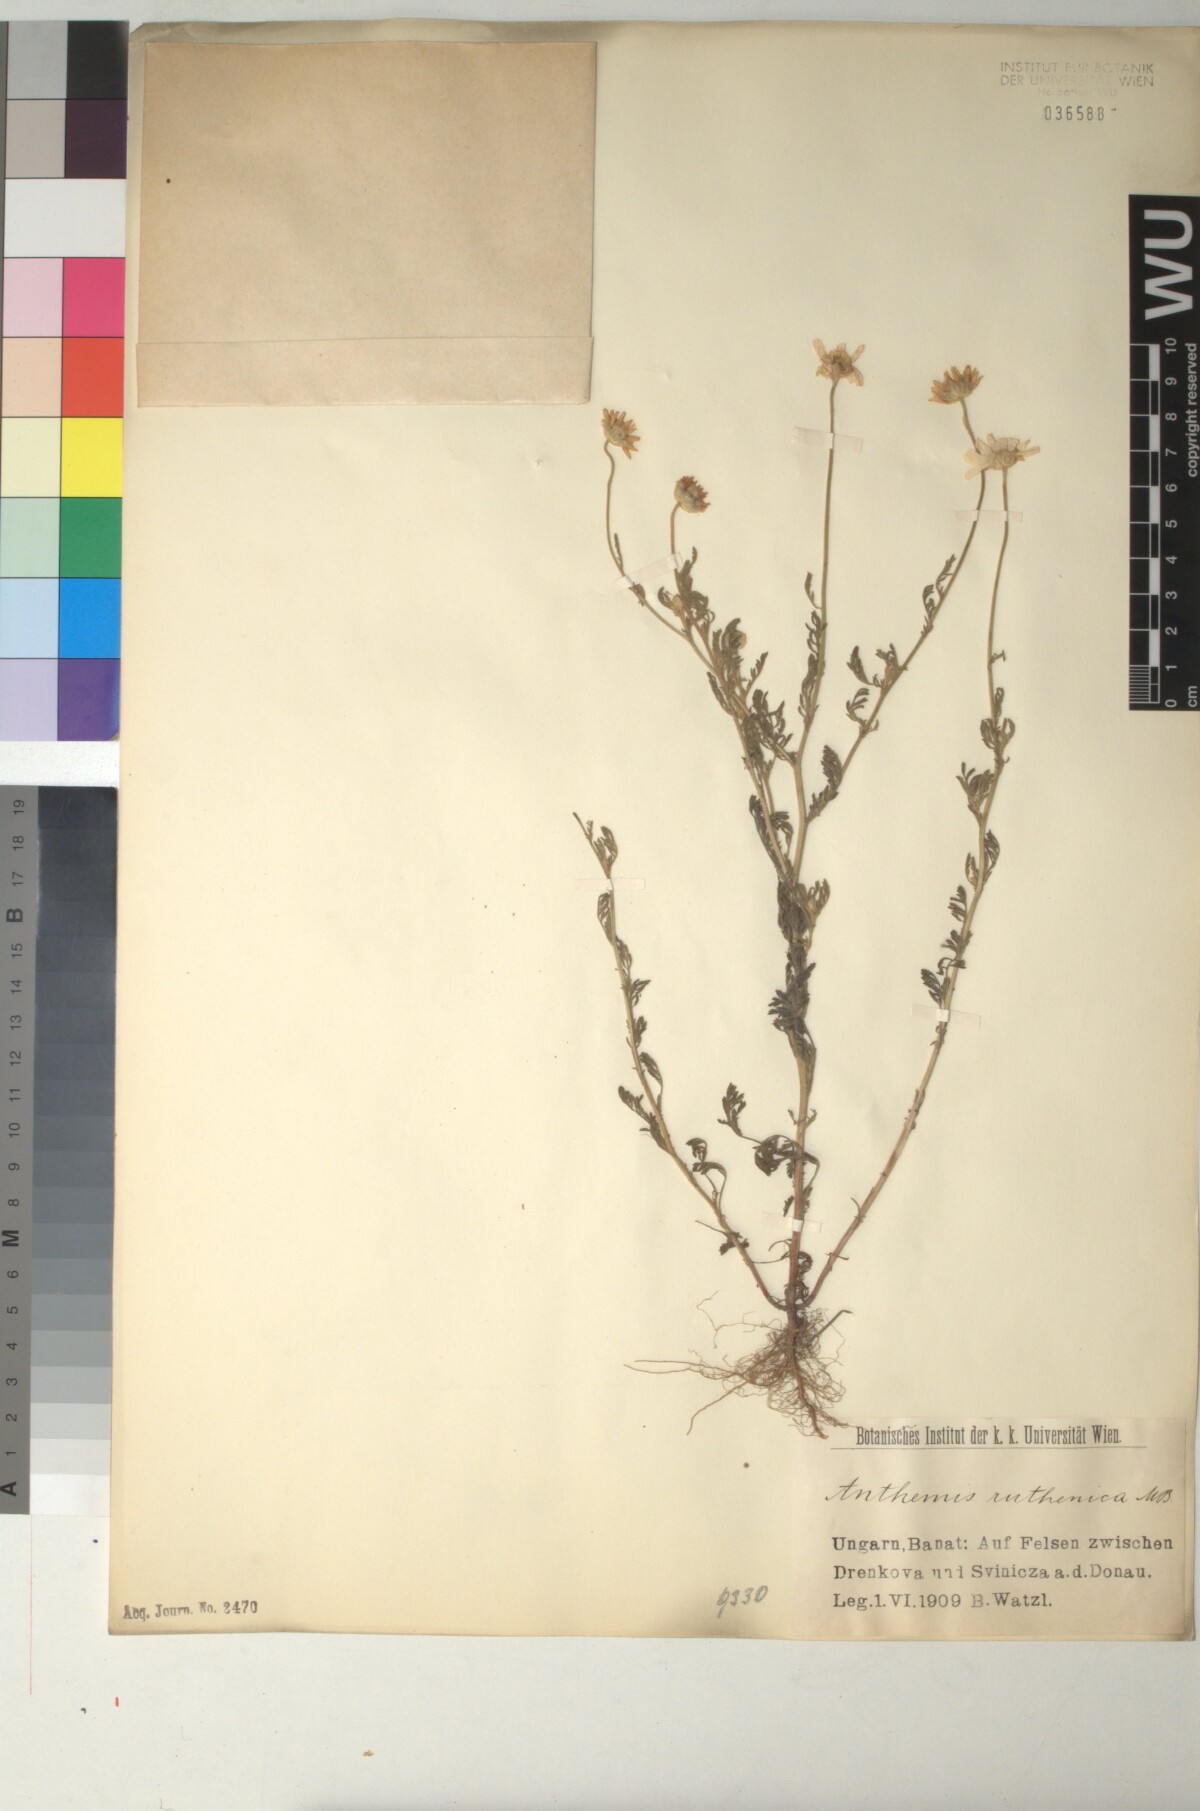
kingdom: Plantae
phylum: Tracheophyta
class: Magnoliopsida
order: Asterales
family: Asteraceae
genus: Anthemis
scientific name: Anthemis ruthenica
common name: Eastern chamomile
